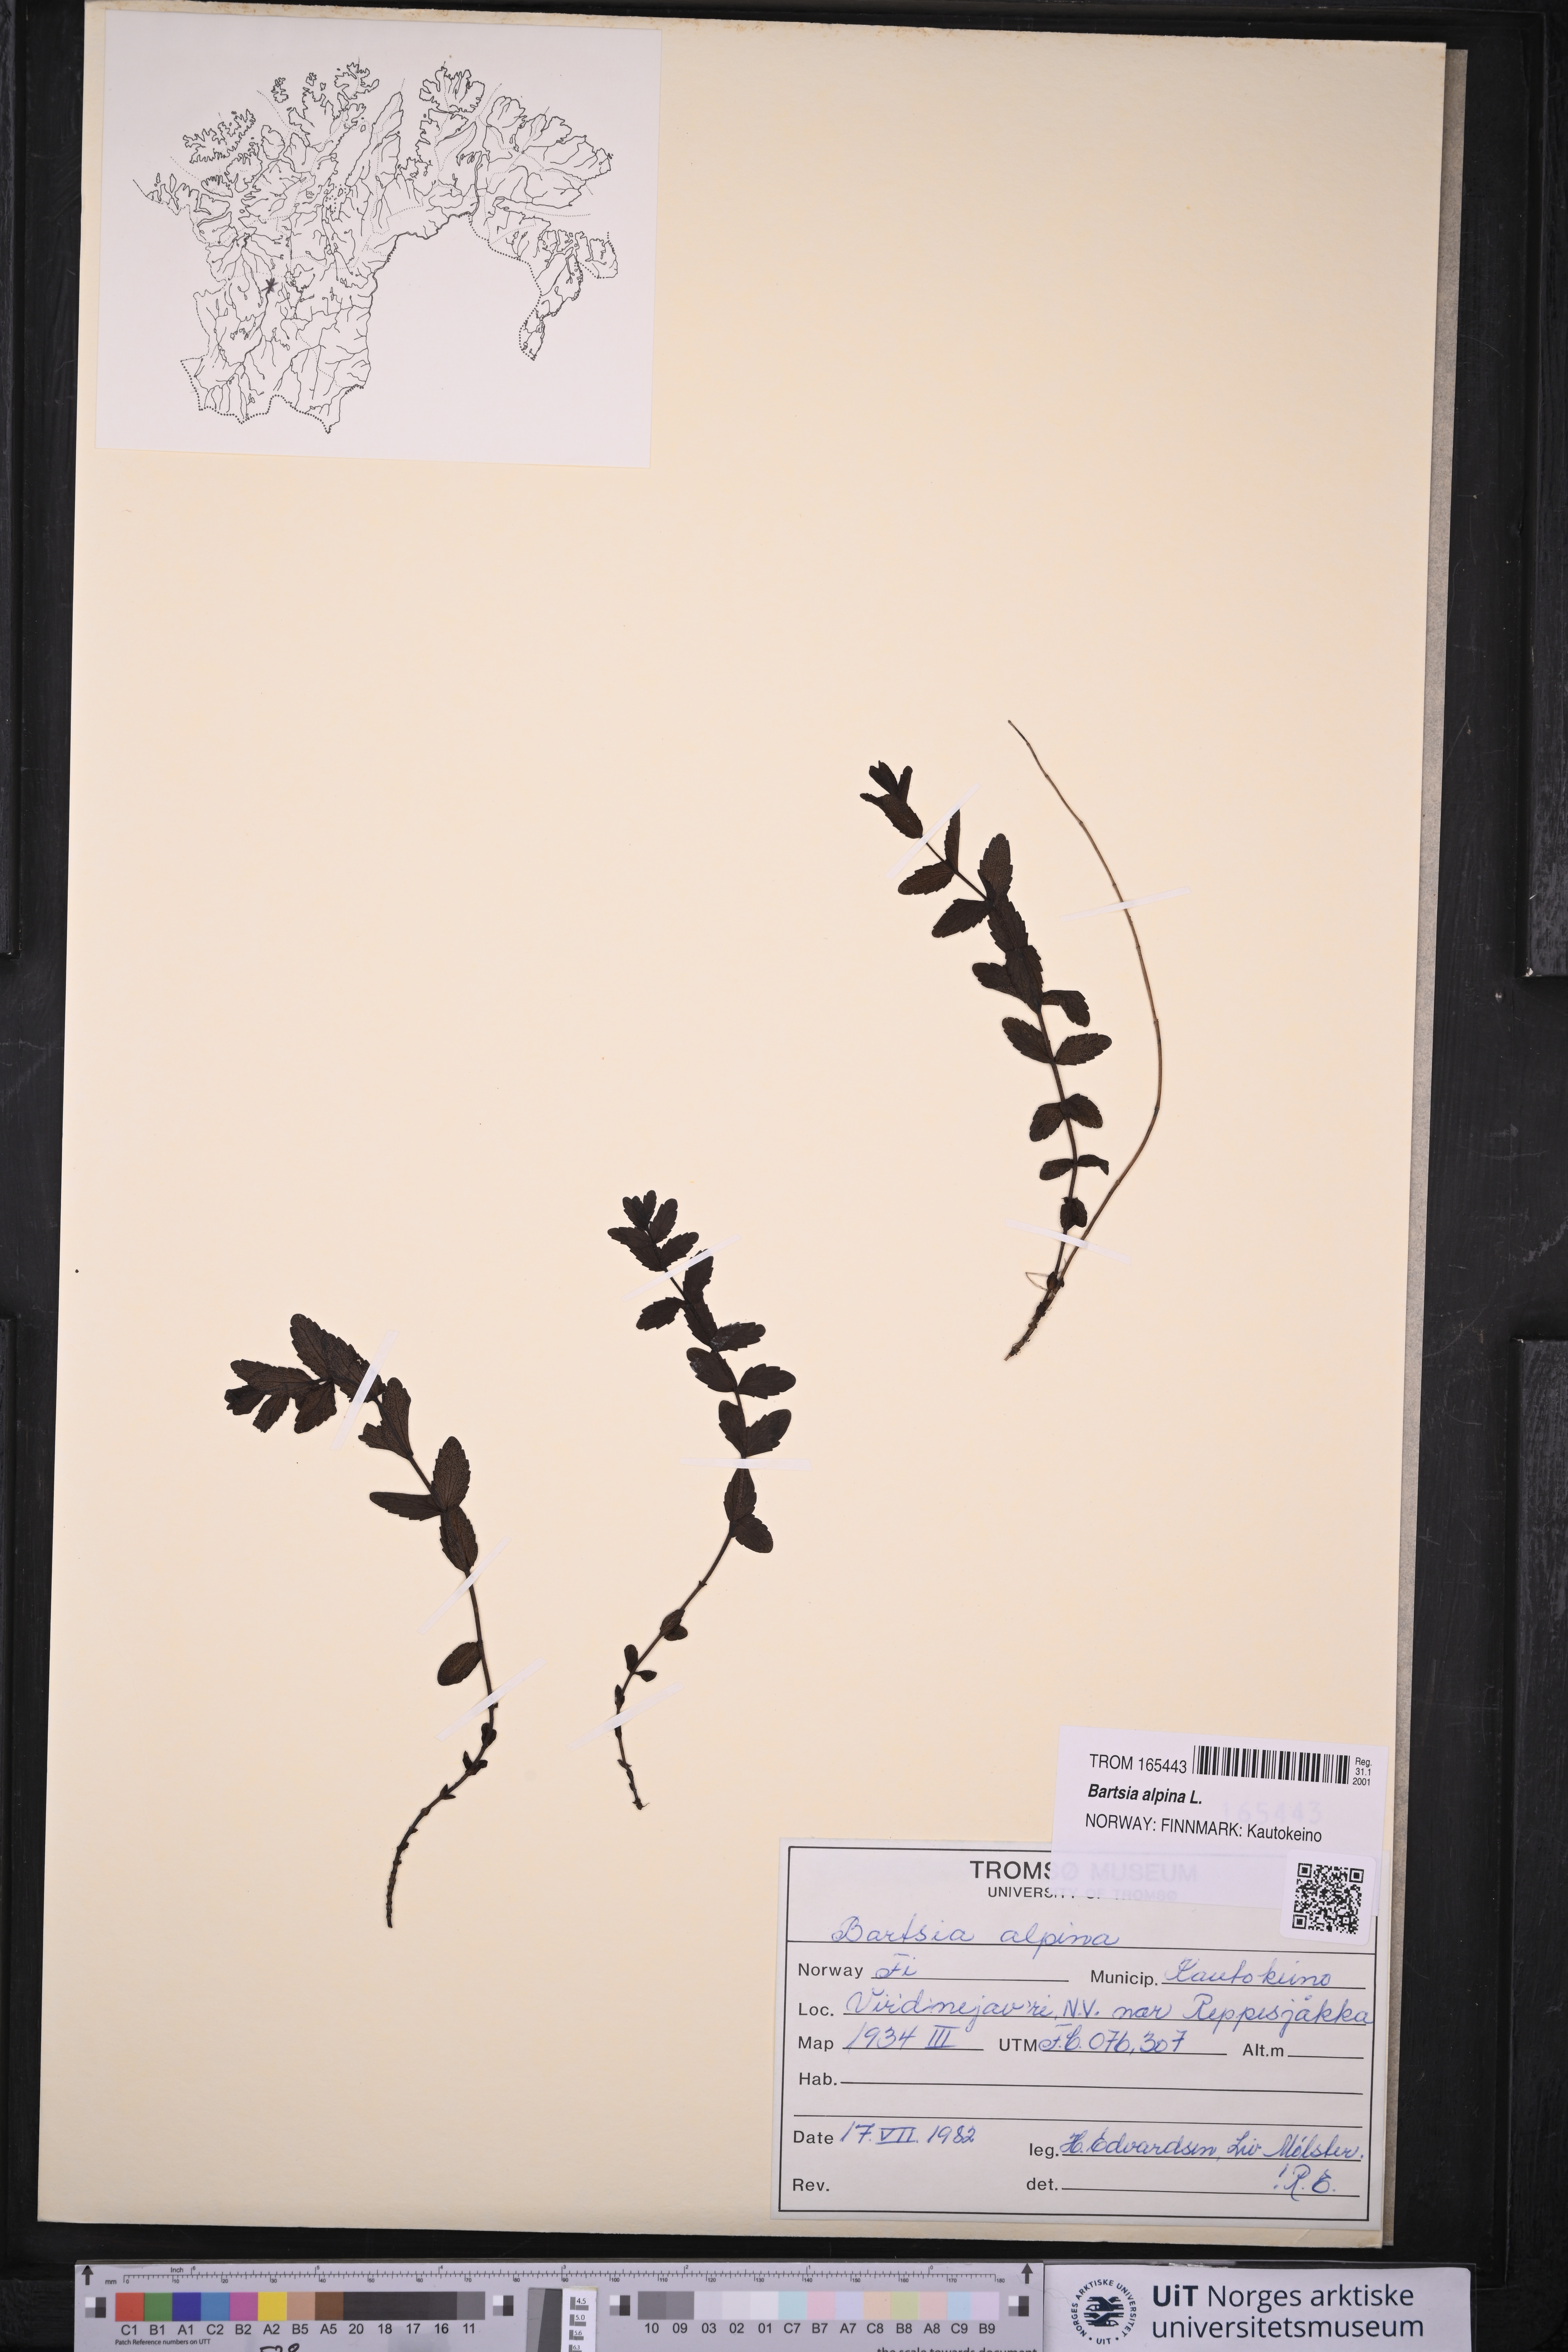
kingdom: Plantae
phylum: Tracheophyta
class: Magnoliopsida
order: Lamiales
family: Orobanchaceae
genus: Bartsia
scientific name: Bartsia alpina
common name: Alpine bartsia
